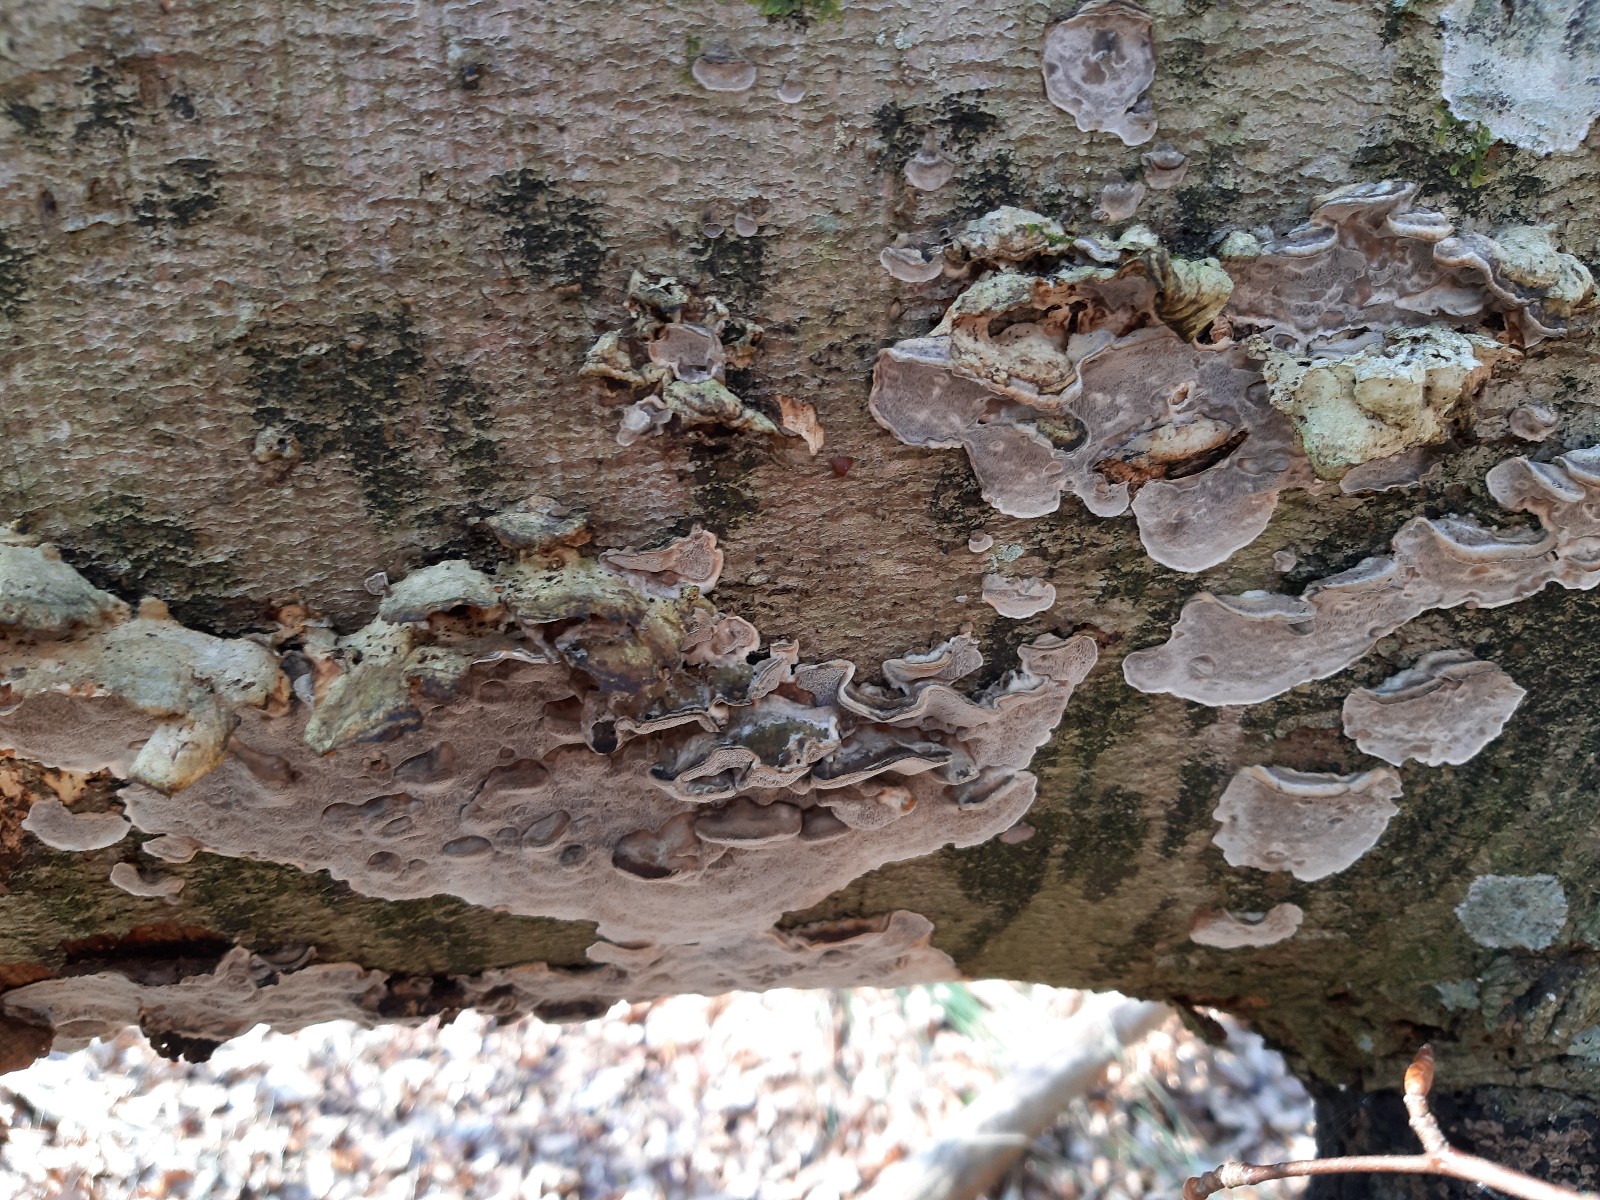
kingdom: Fungi
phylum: Basidiomycota
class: Agaricomycetes
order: Polyporales
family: Phanerochaetaceae
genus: Bjerkandera
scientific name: Bjerkandera adusta
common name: sveden sodporesvamp
